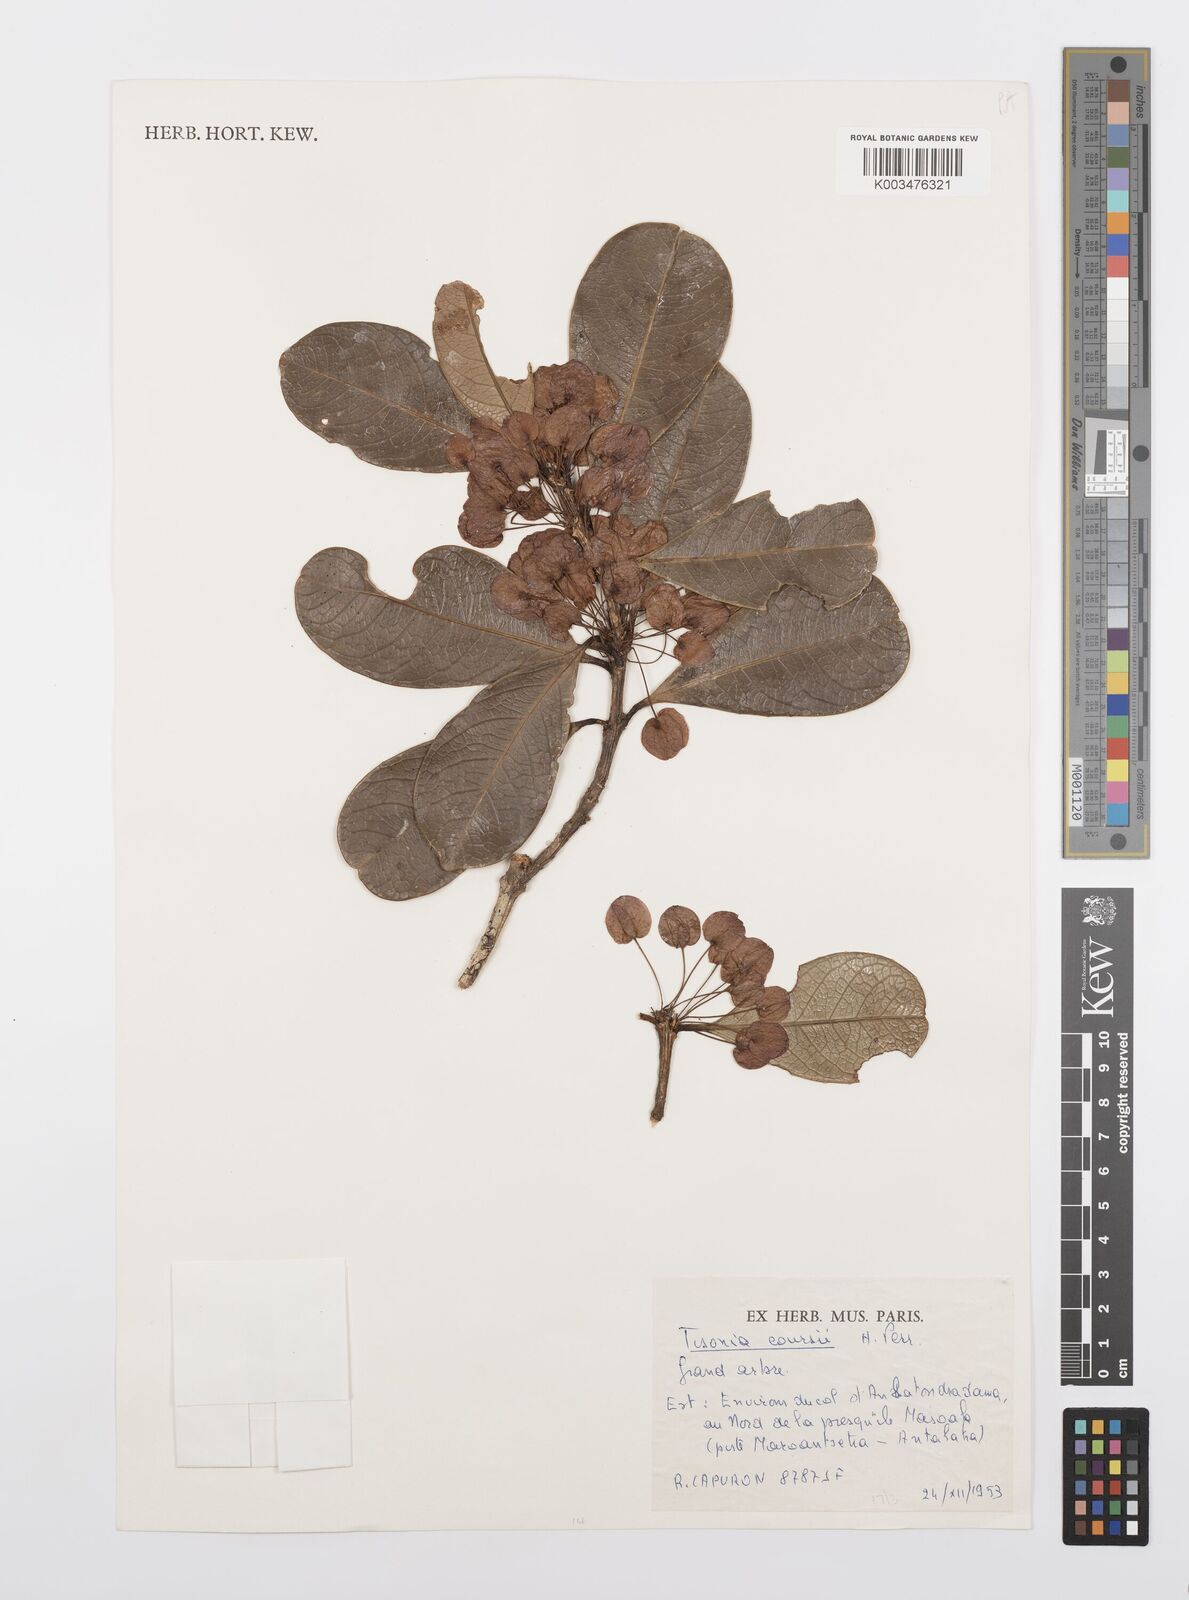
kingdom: Plantae
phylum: Tracheophyta
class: Magnoliopsida
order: Malpighiales
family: Salicaceae
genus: Tisonia
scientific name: Tisonia baillonii
